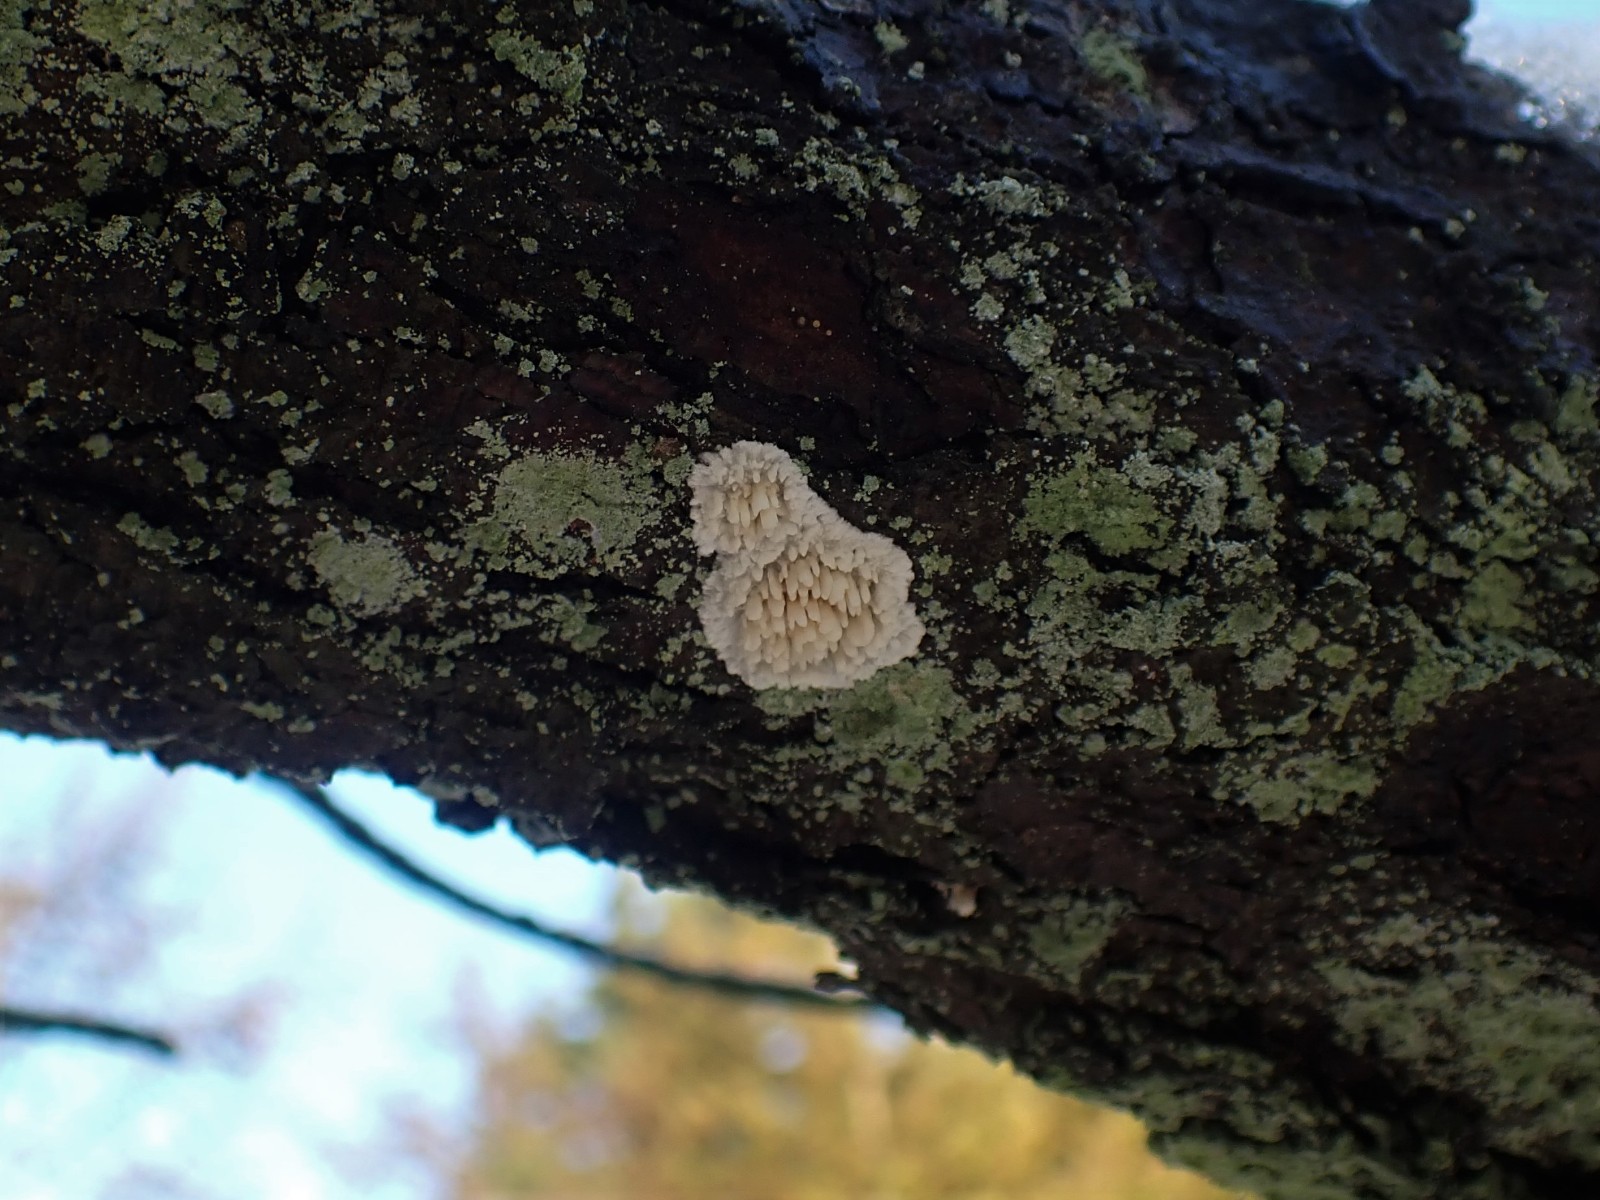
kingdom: Fungi
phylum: Basidiomycota
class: Agaricomycetes
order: Hymenochaetales
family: Schizoporaceae
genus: Xylodon
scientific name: Xylodon radula
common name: grovtandet kalkskind
